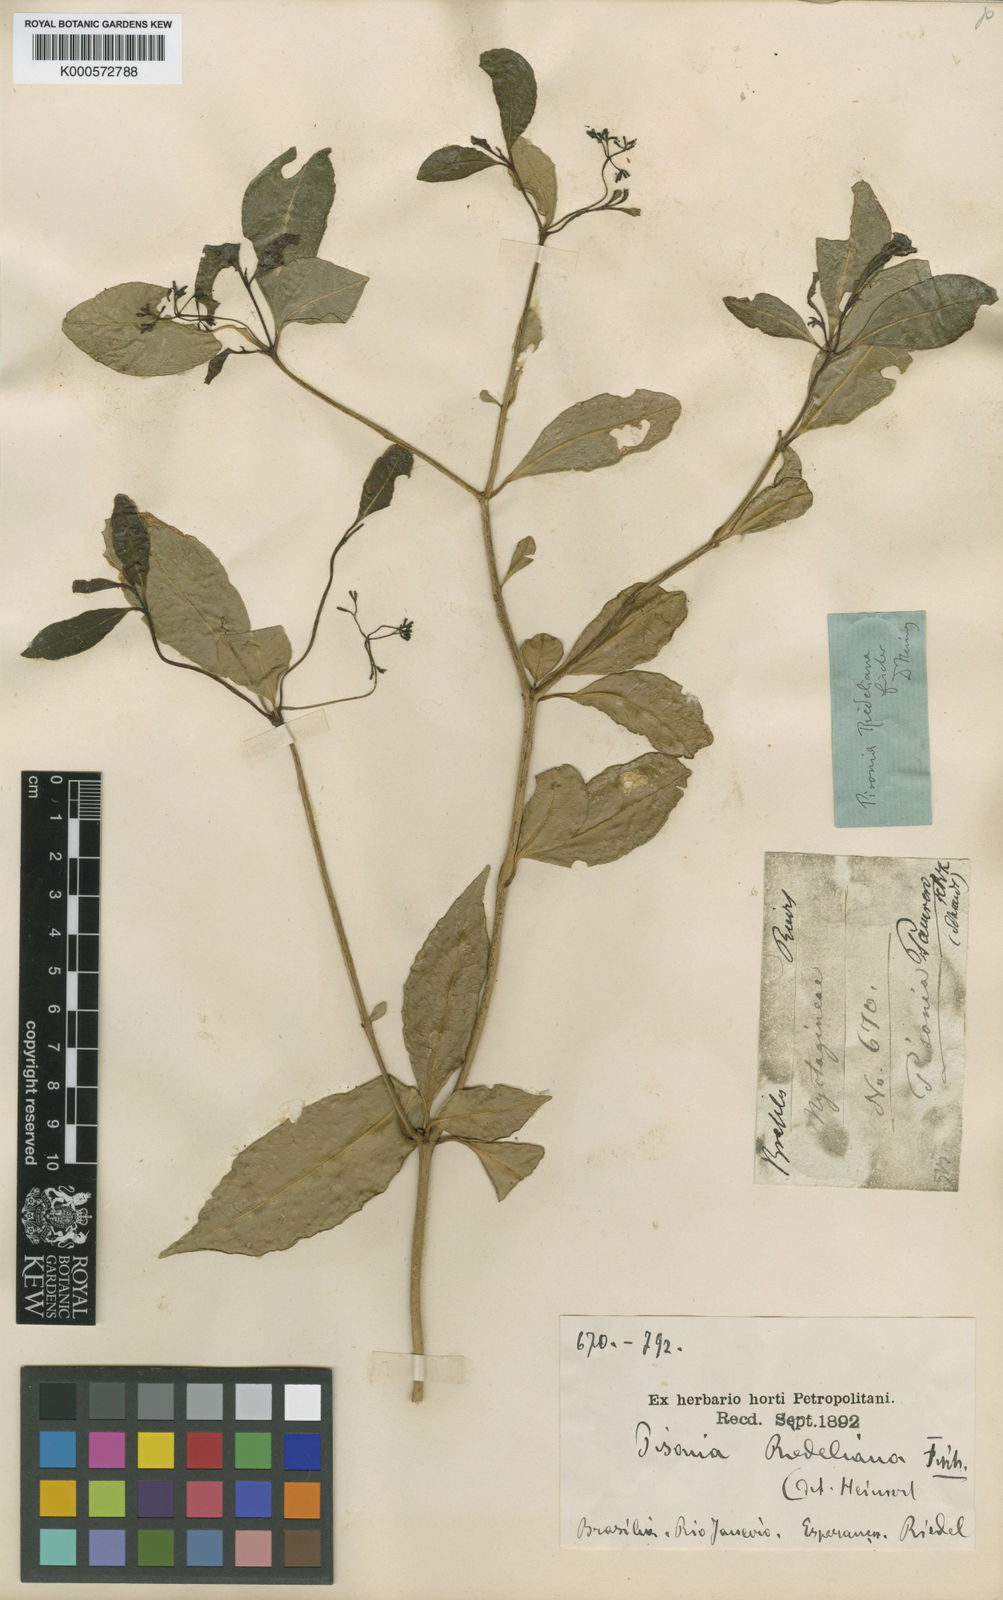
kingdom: Plantae
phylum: Tracheophyta
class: Magnoliopsida
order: Caryophyllales
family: Nyctaginaceae
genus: Guapira
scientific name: Guapira riedeliana
